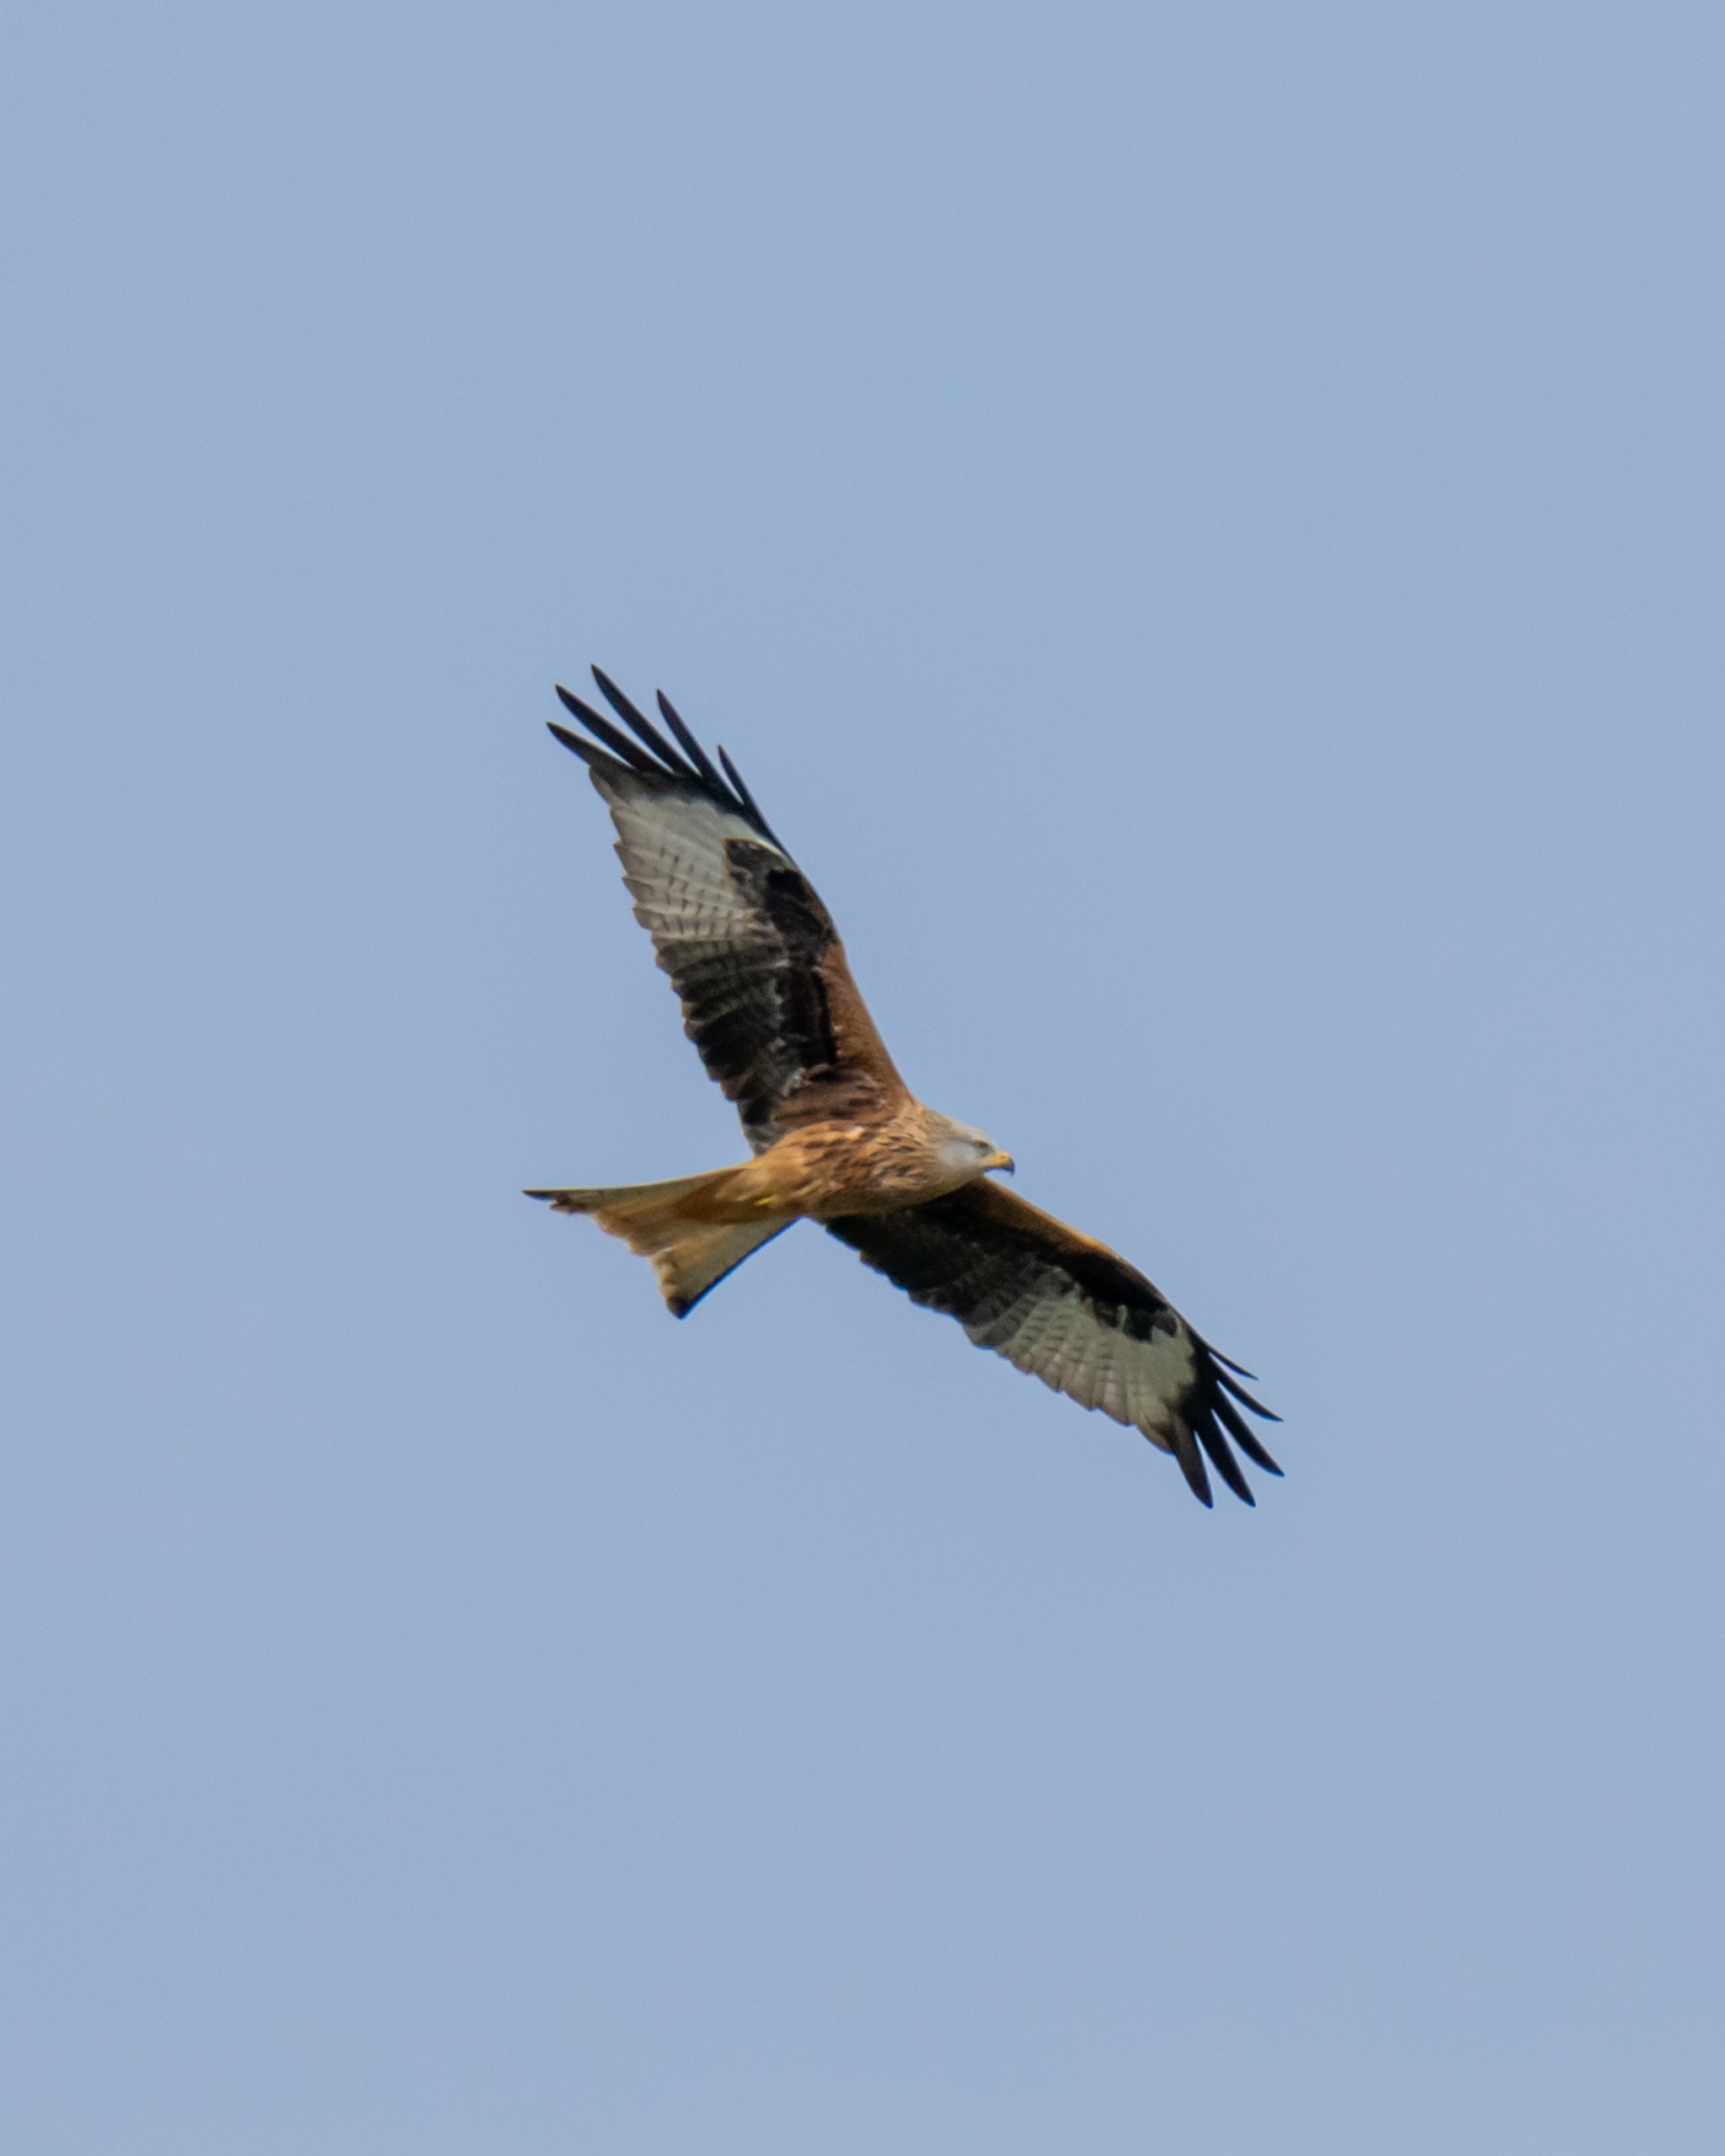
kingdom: Animalia
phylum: Chordata
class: Aves
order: Accipitriformes
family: Accipitridae
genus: Milvus
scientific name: Milvus milvus
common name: Rød glente
